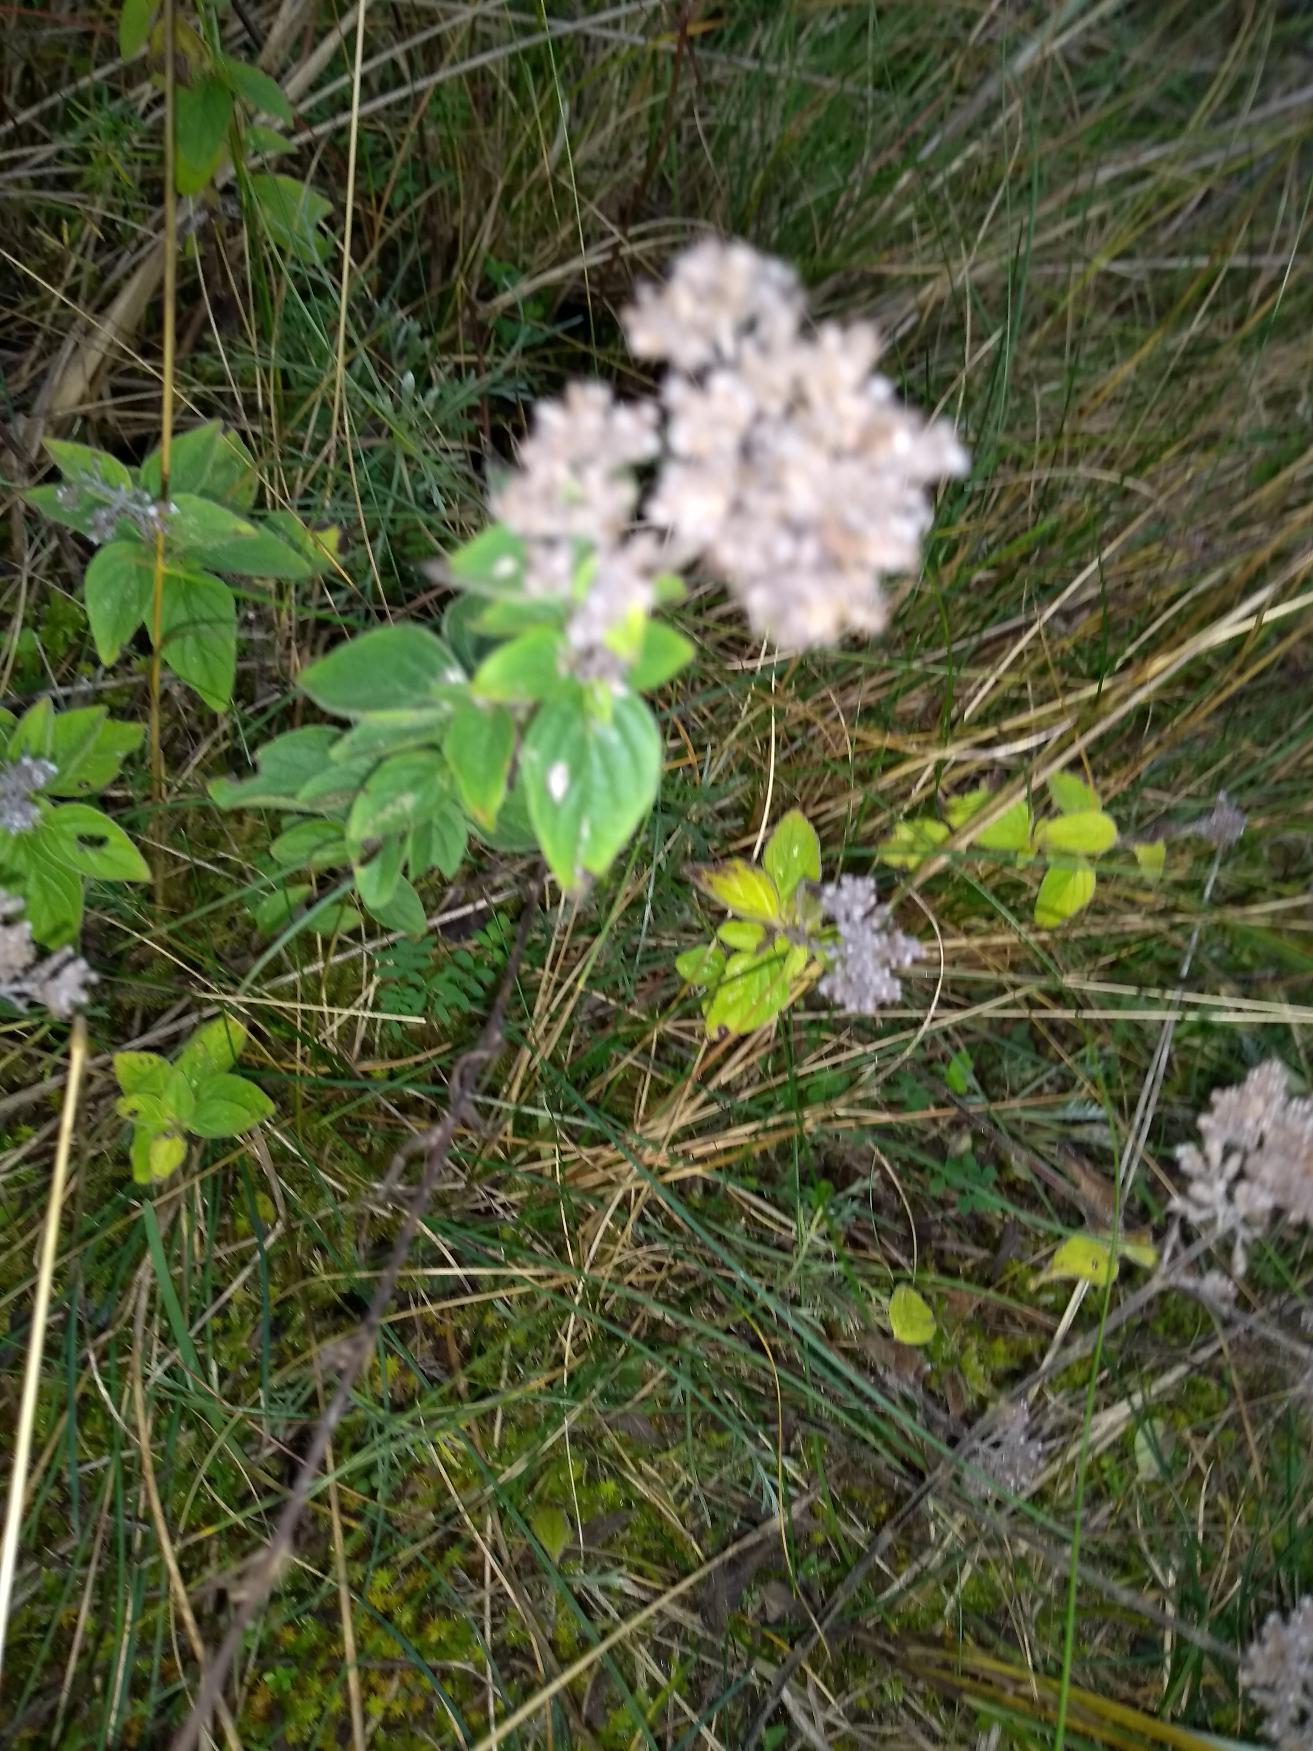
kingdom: Plantae
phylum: Tracheophyta
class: Magnoliopsida
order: Lamiales
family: Lamiaceae
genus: Origanum
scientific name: Origanum vulgare
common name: Merian
